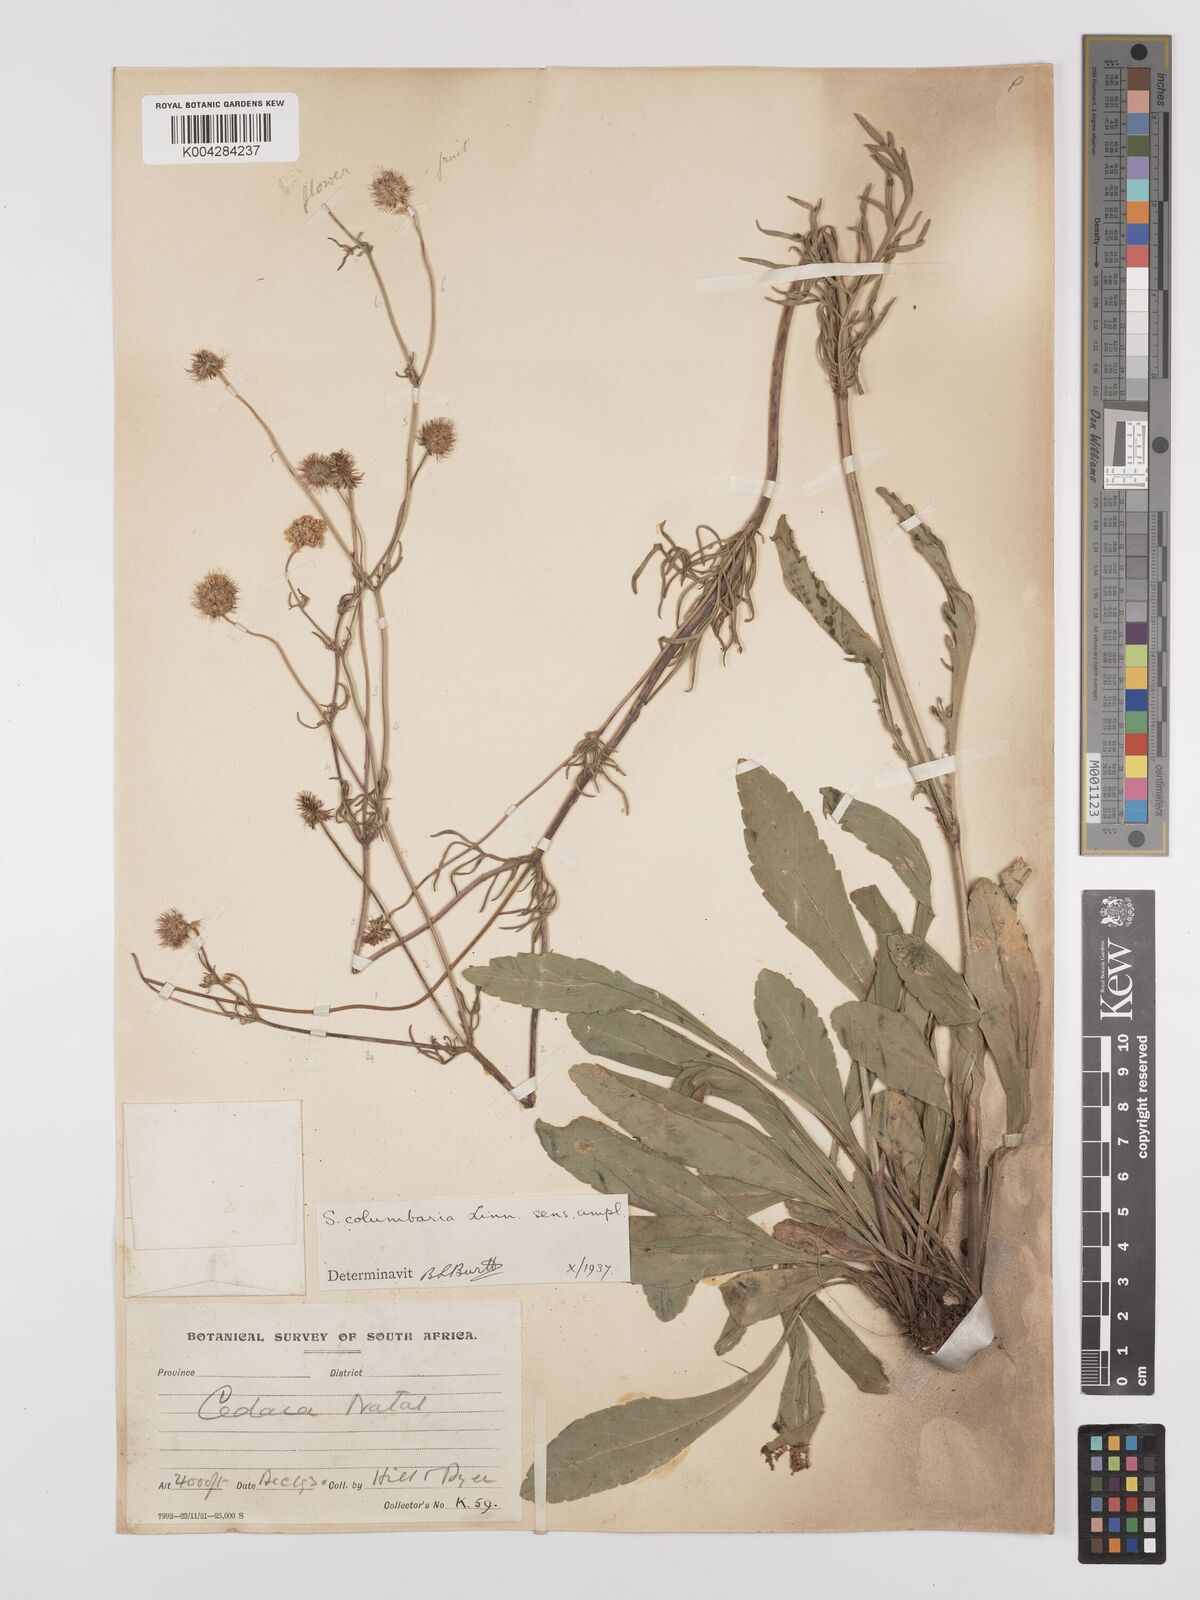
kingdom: Plantae
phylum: Tracheophyta
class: Magnoliopsida
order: Dipsacales
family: Caprifoliaceae
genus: Scabiosa
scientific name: Scabiosa columbaria
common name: Small scabious
